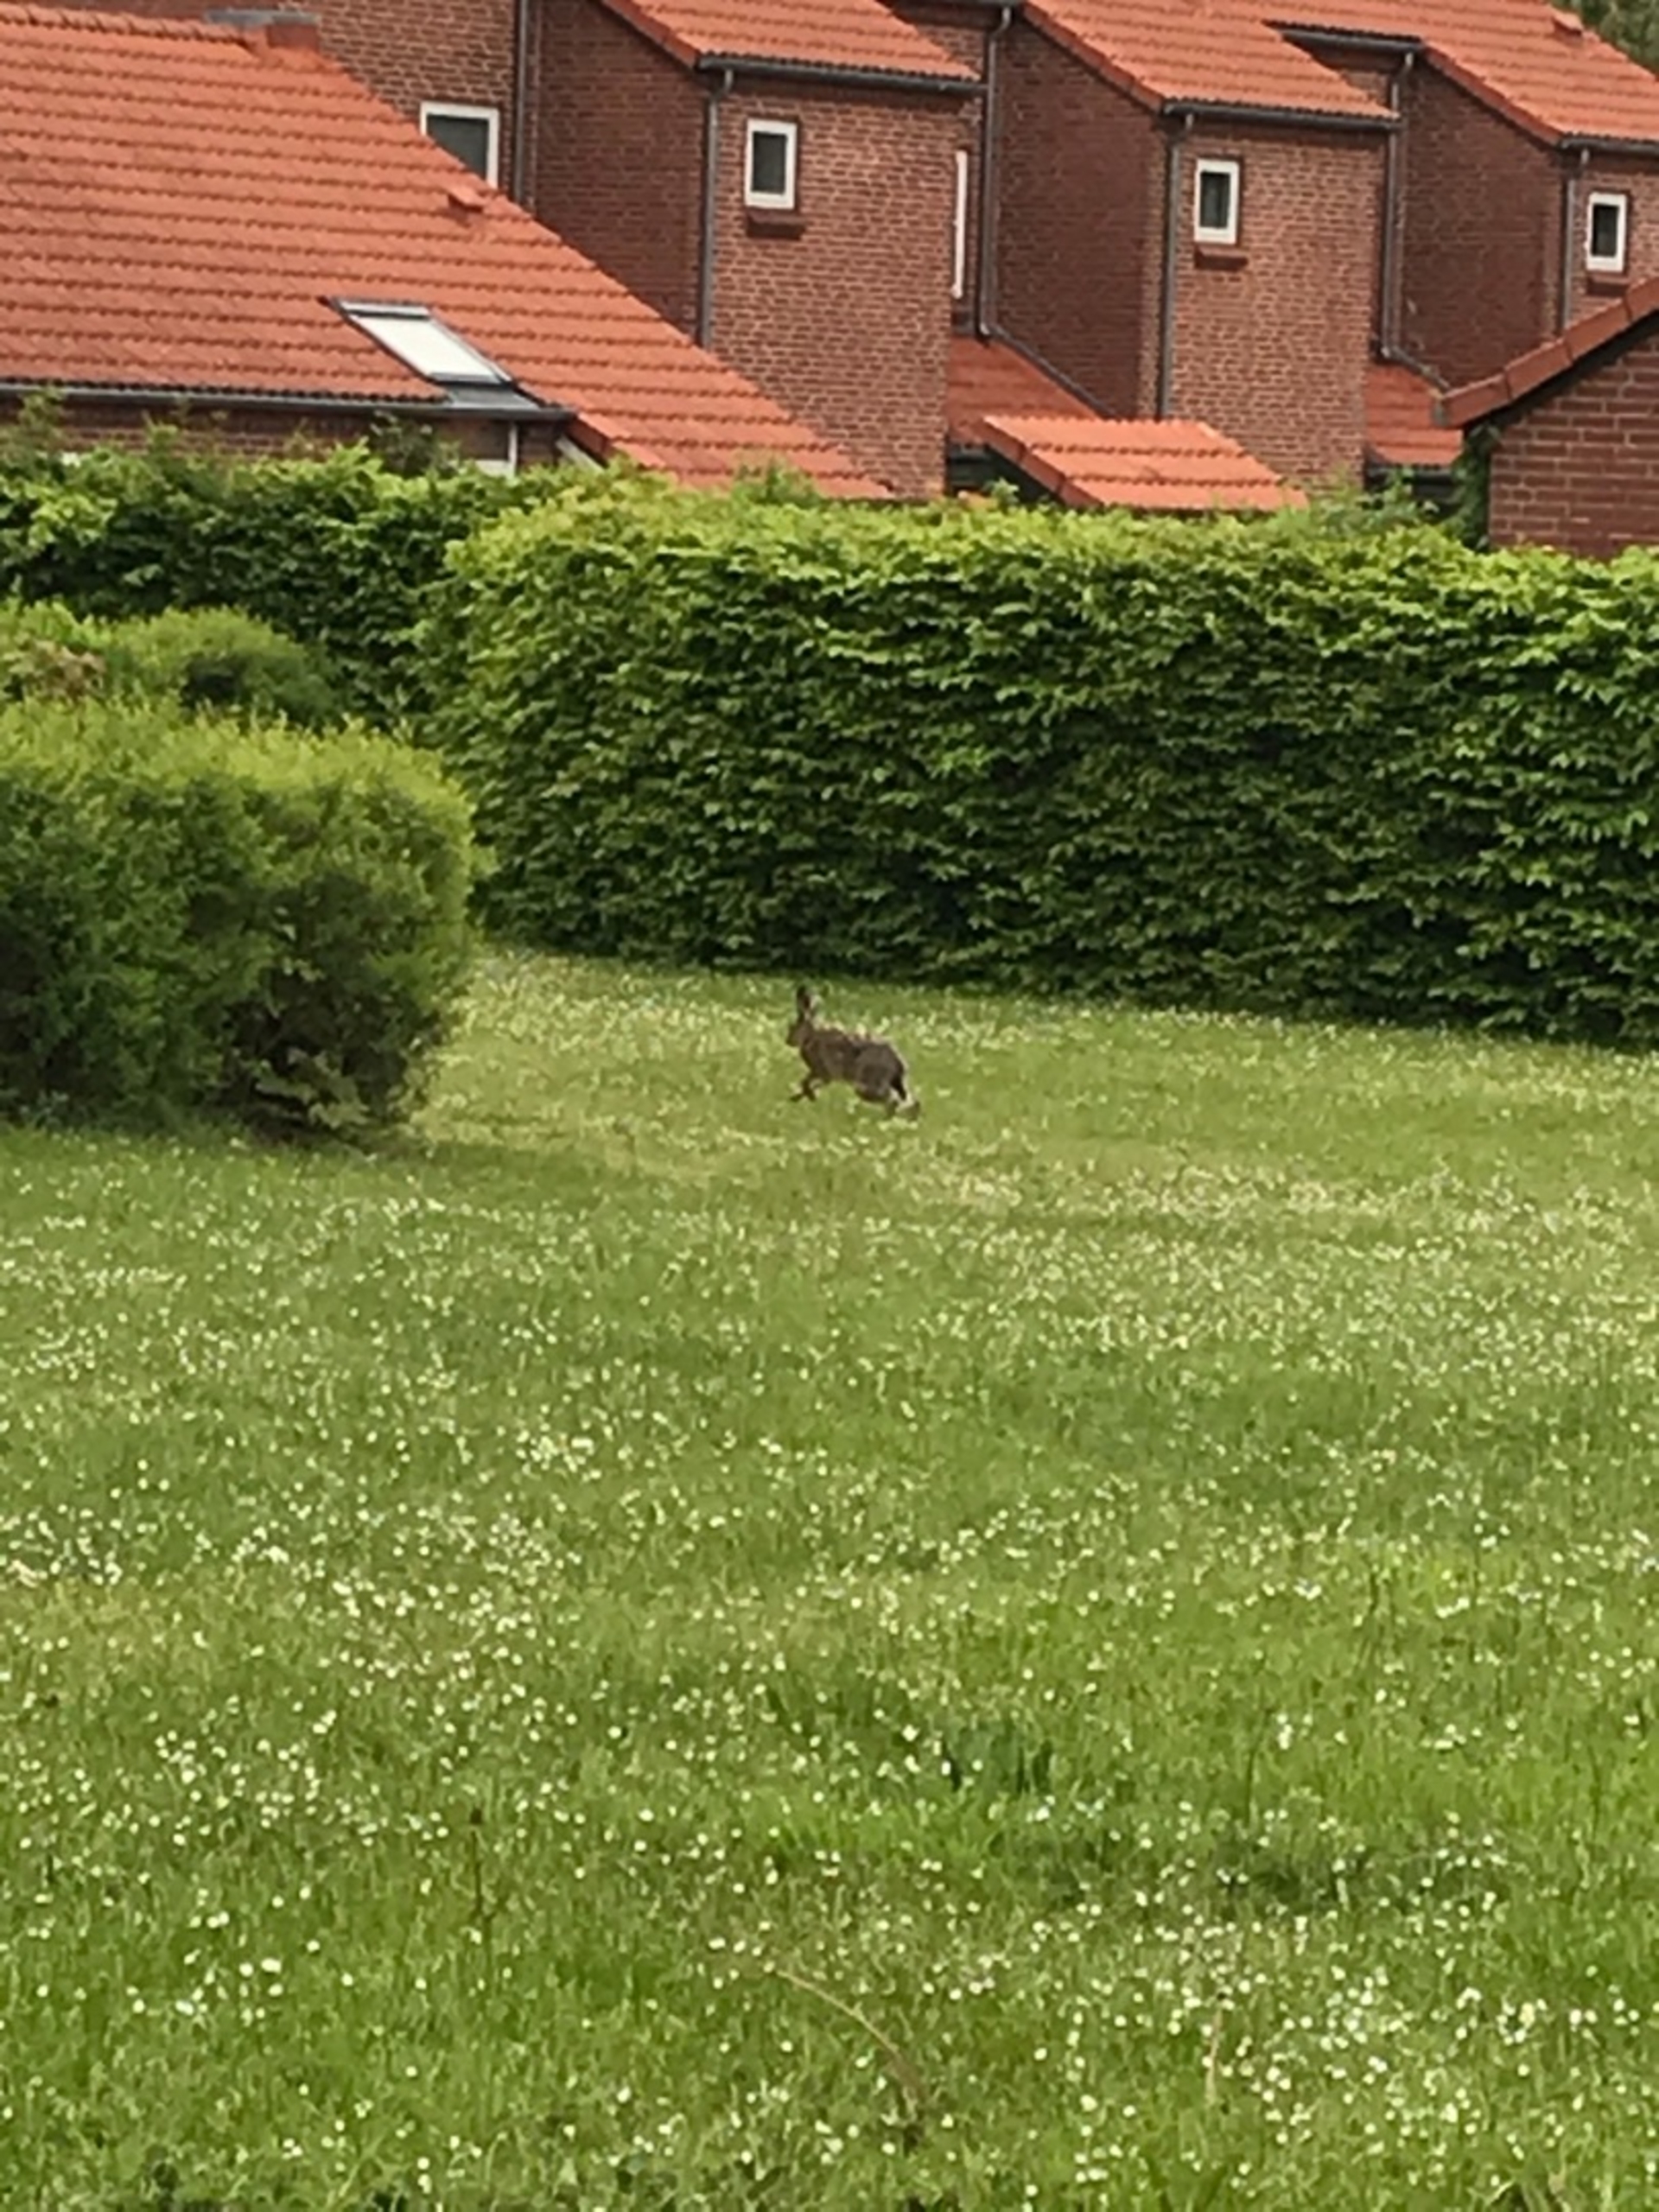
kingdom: Animalia
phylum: Chordata
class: Mammalia
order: Lagomorpha
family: Leporidae
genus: Lepus
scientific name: Lepus europaeus
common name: Hare
